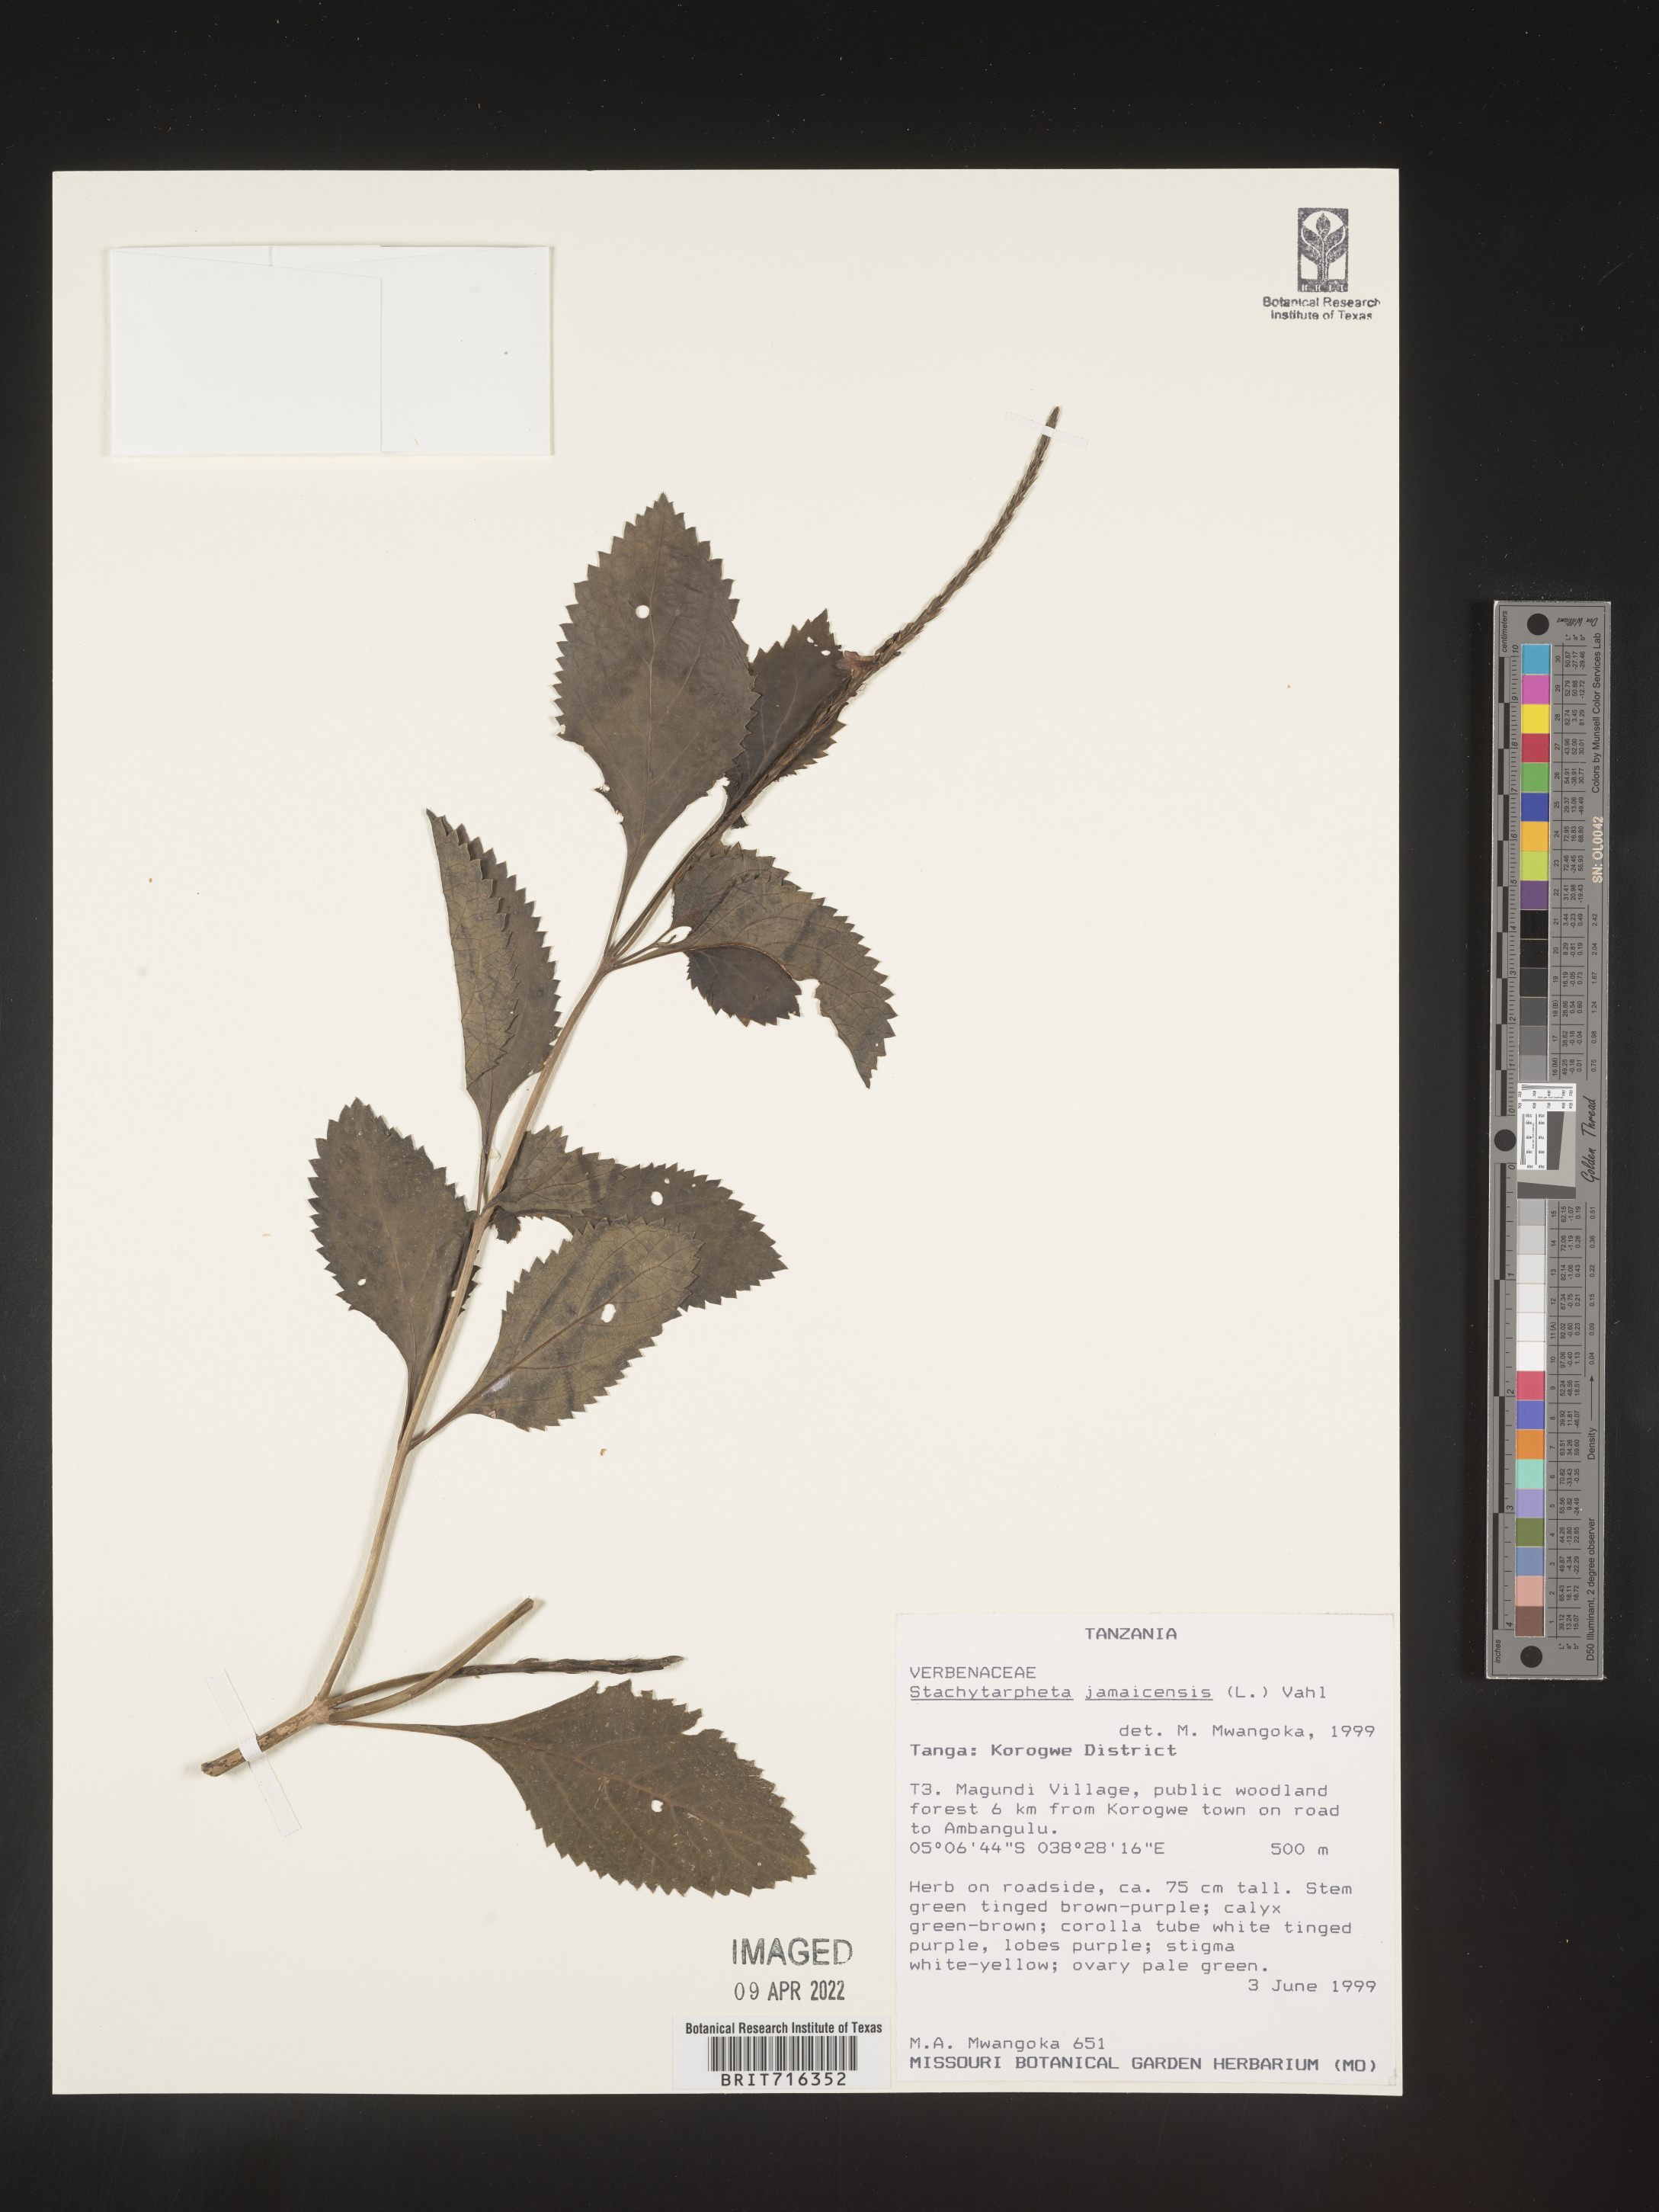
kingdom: Plantae
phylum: Tracheophyta
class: Magnoliopsida
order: Lamiales
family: Verbenaceae
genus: Stachytarpheta
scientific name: Stachytarpheta
